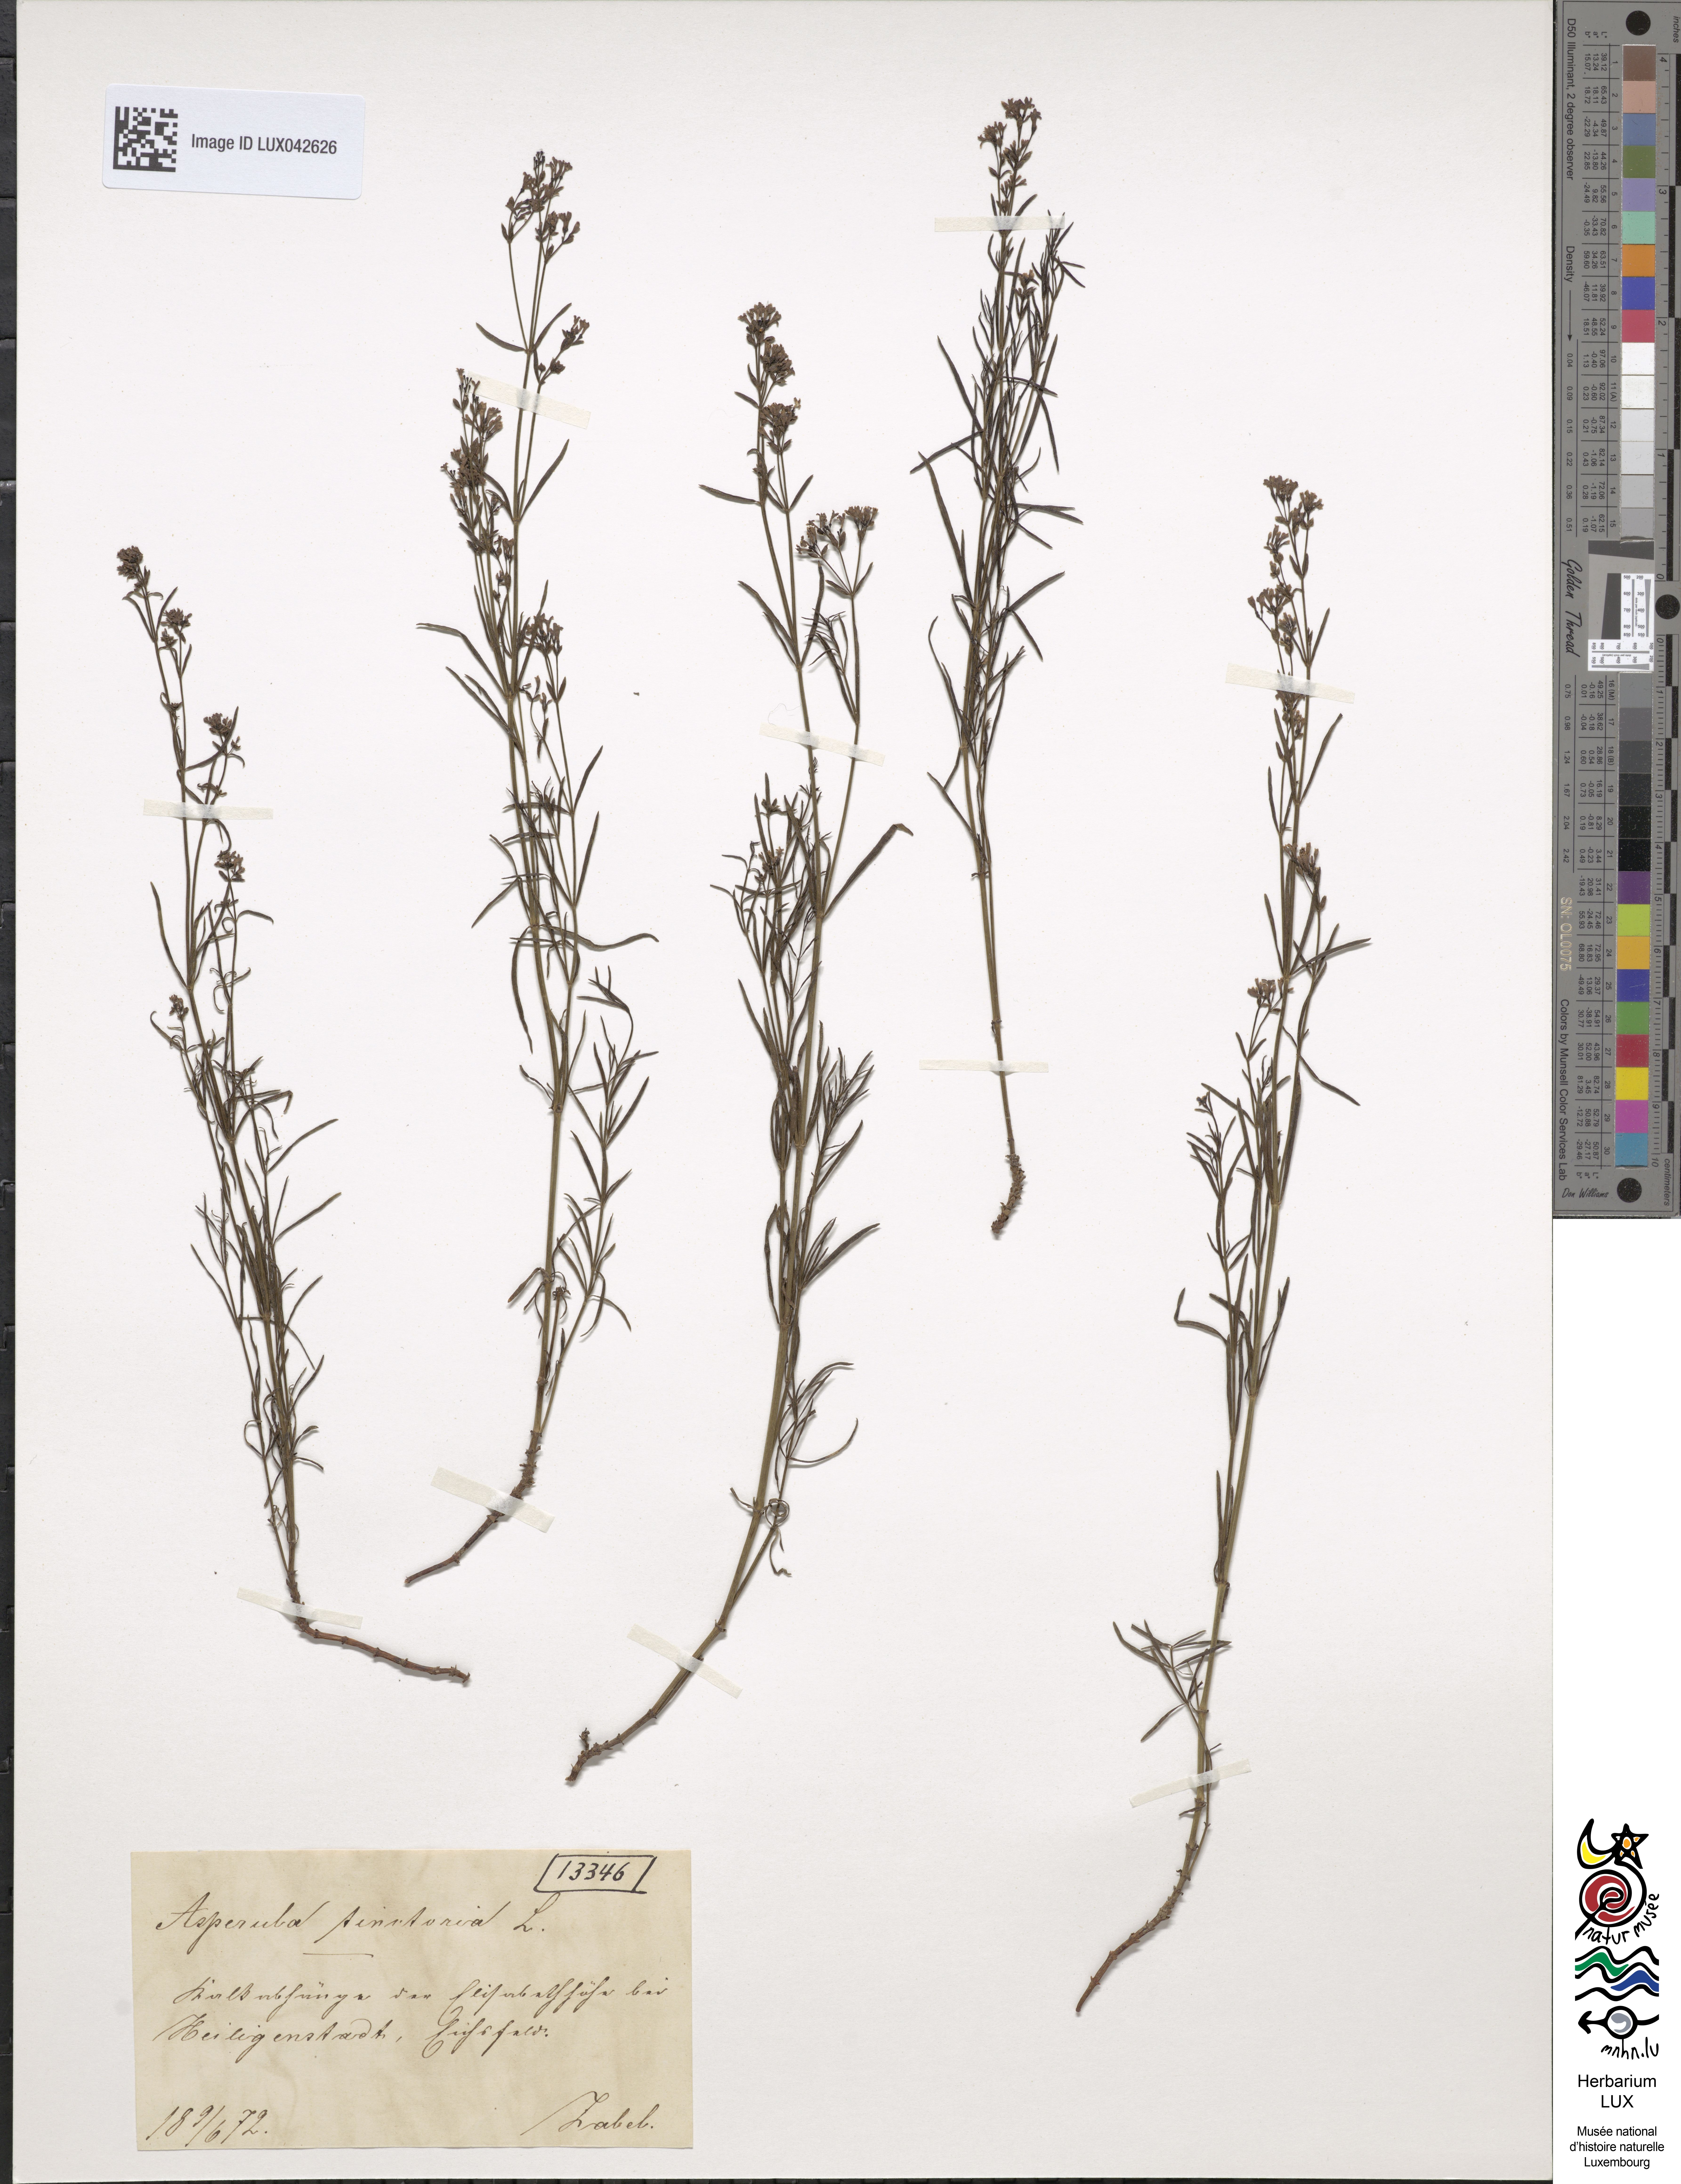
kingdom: Plantae
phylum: Tracheophyta
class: Magnoliopsida
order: Gentianales
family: Rubiaceae
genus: Asperula
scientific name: Asperula tinctoria
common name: Dyer's woodruff
